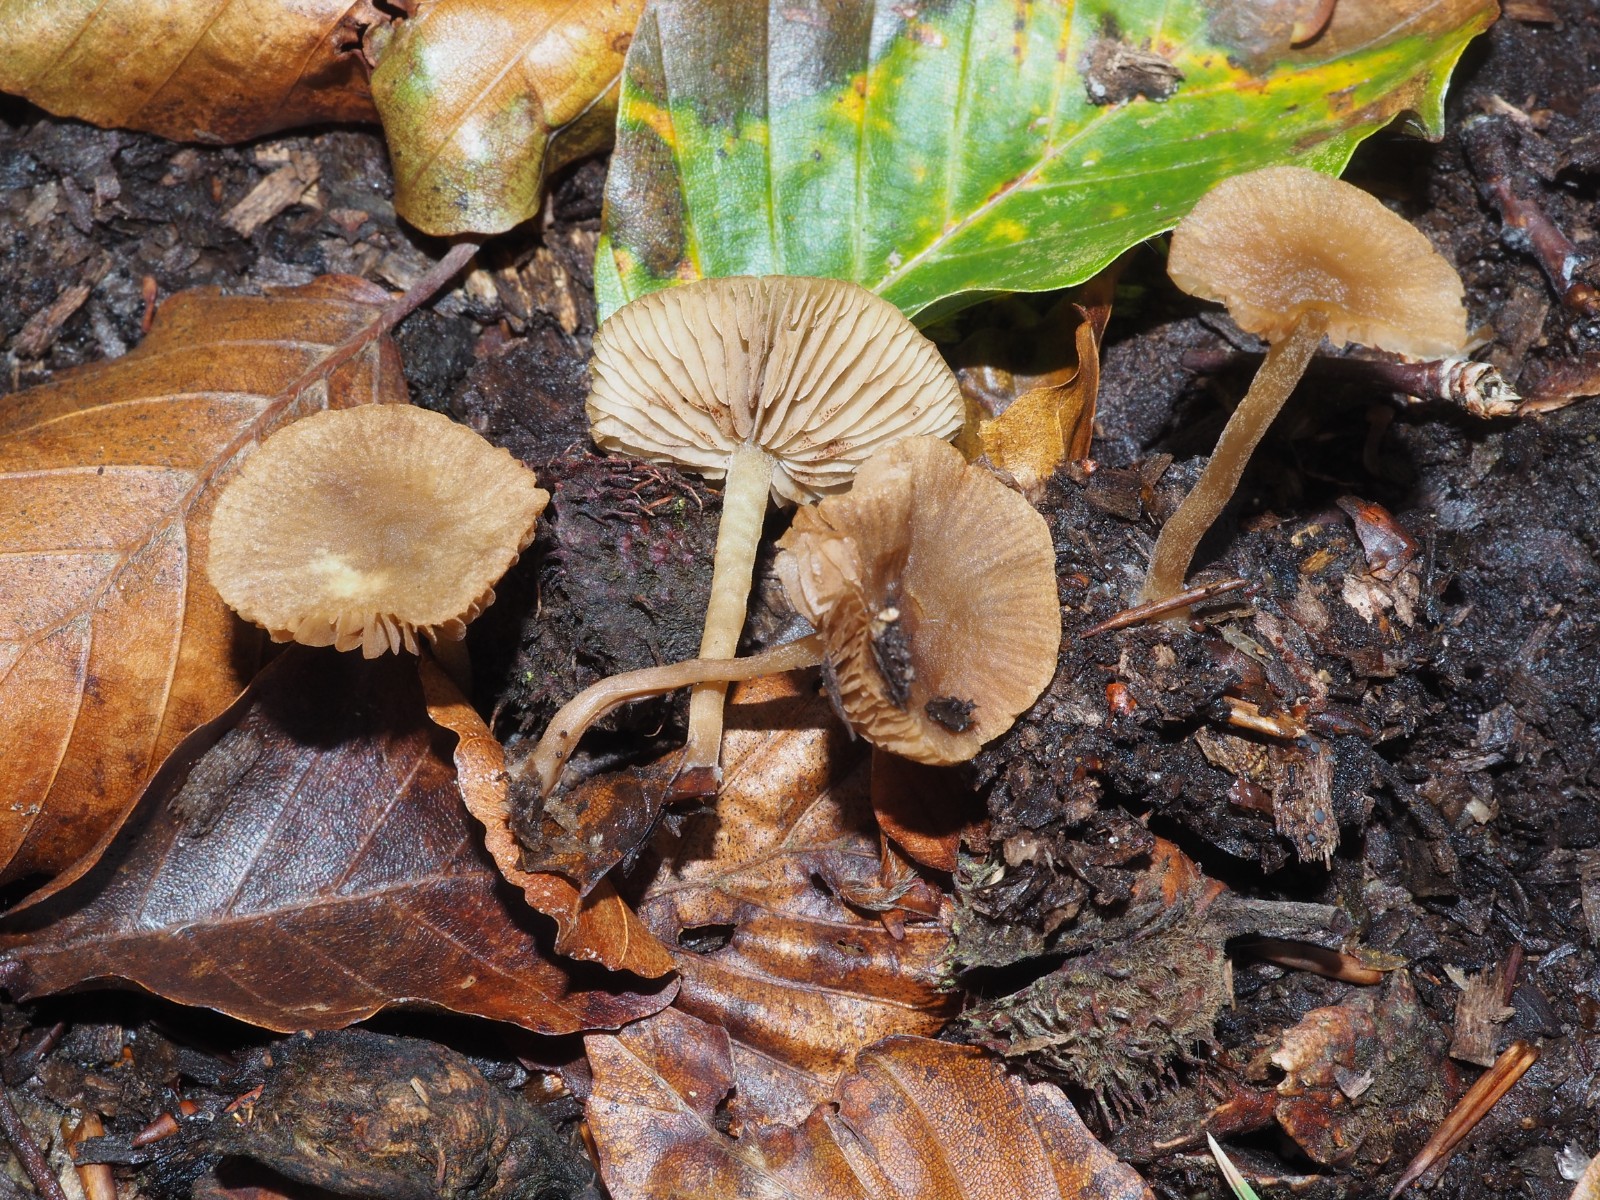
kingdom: Fungi
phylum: Basidiomycota
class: Agaricomycetes
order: Agaricales
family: Crepidotaceae
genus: Simocybe
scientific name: Simocybe
